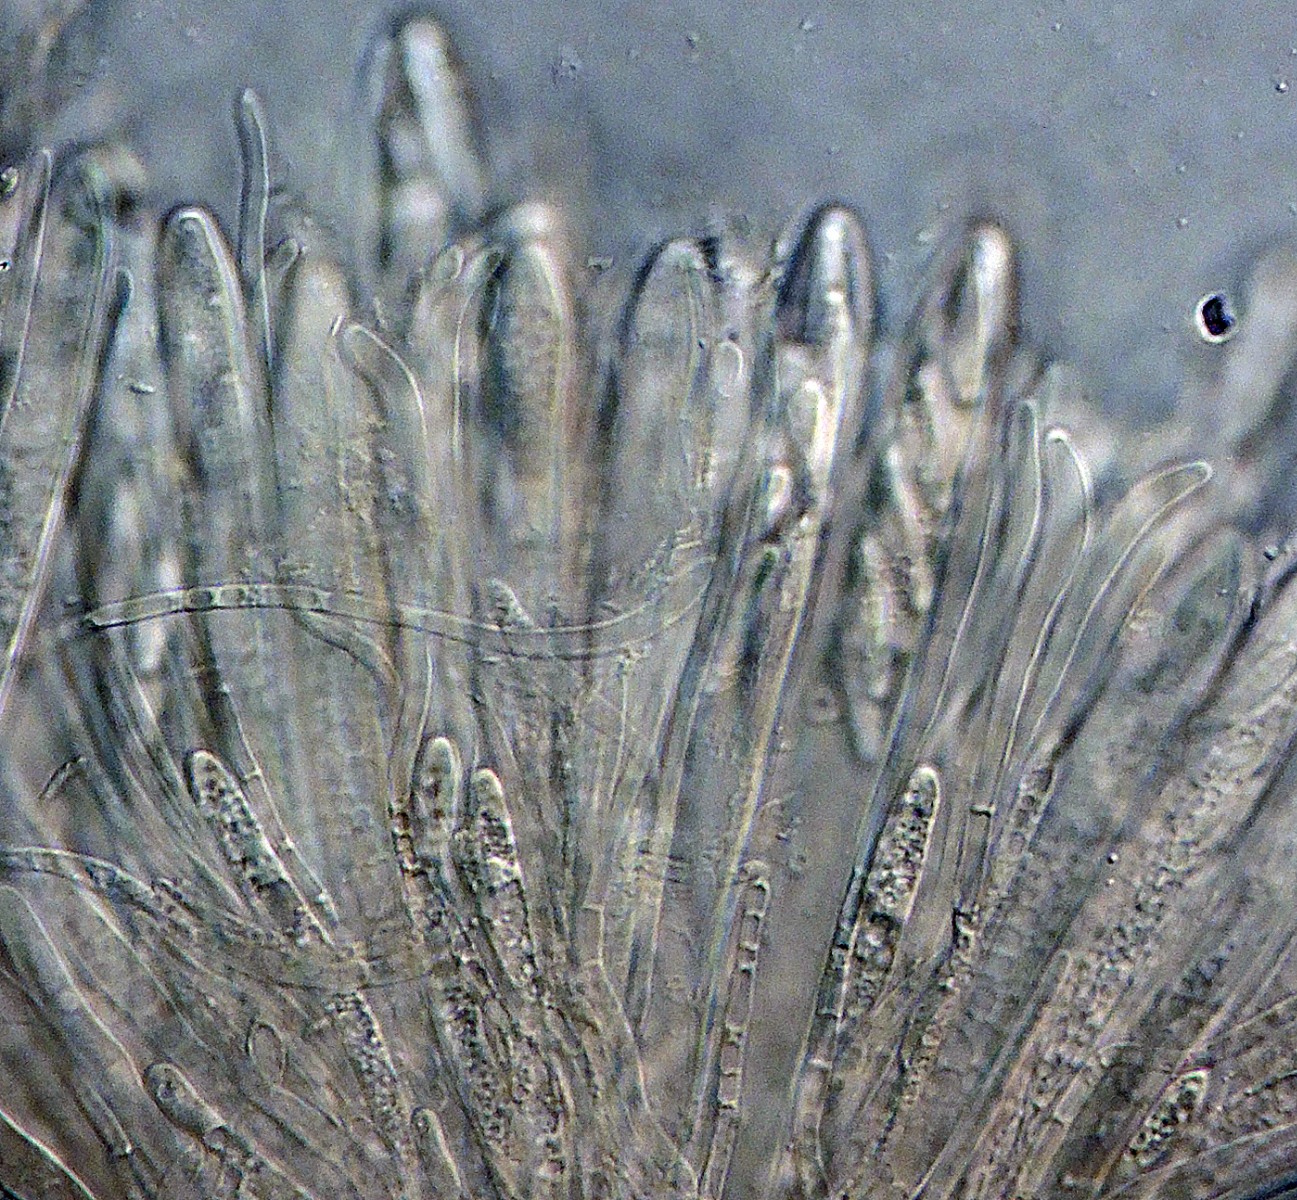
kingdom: Fungi
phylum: Ascomycota
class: Leotiomycetes
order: Helotiales
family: Hyaloscyphaceae
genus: Roseodiscus
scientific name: Roseodiscus formosus
